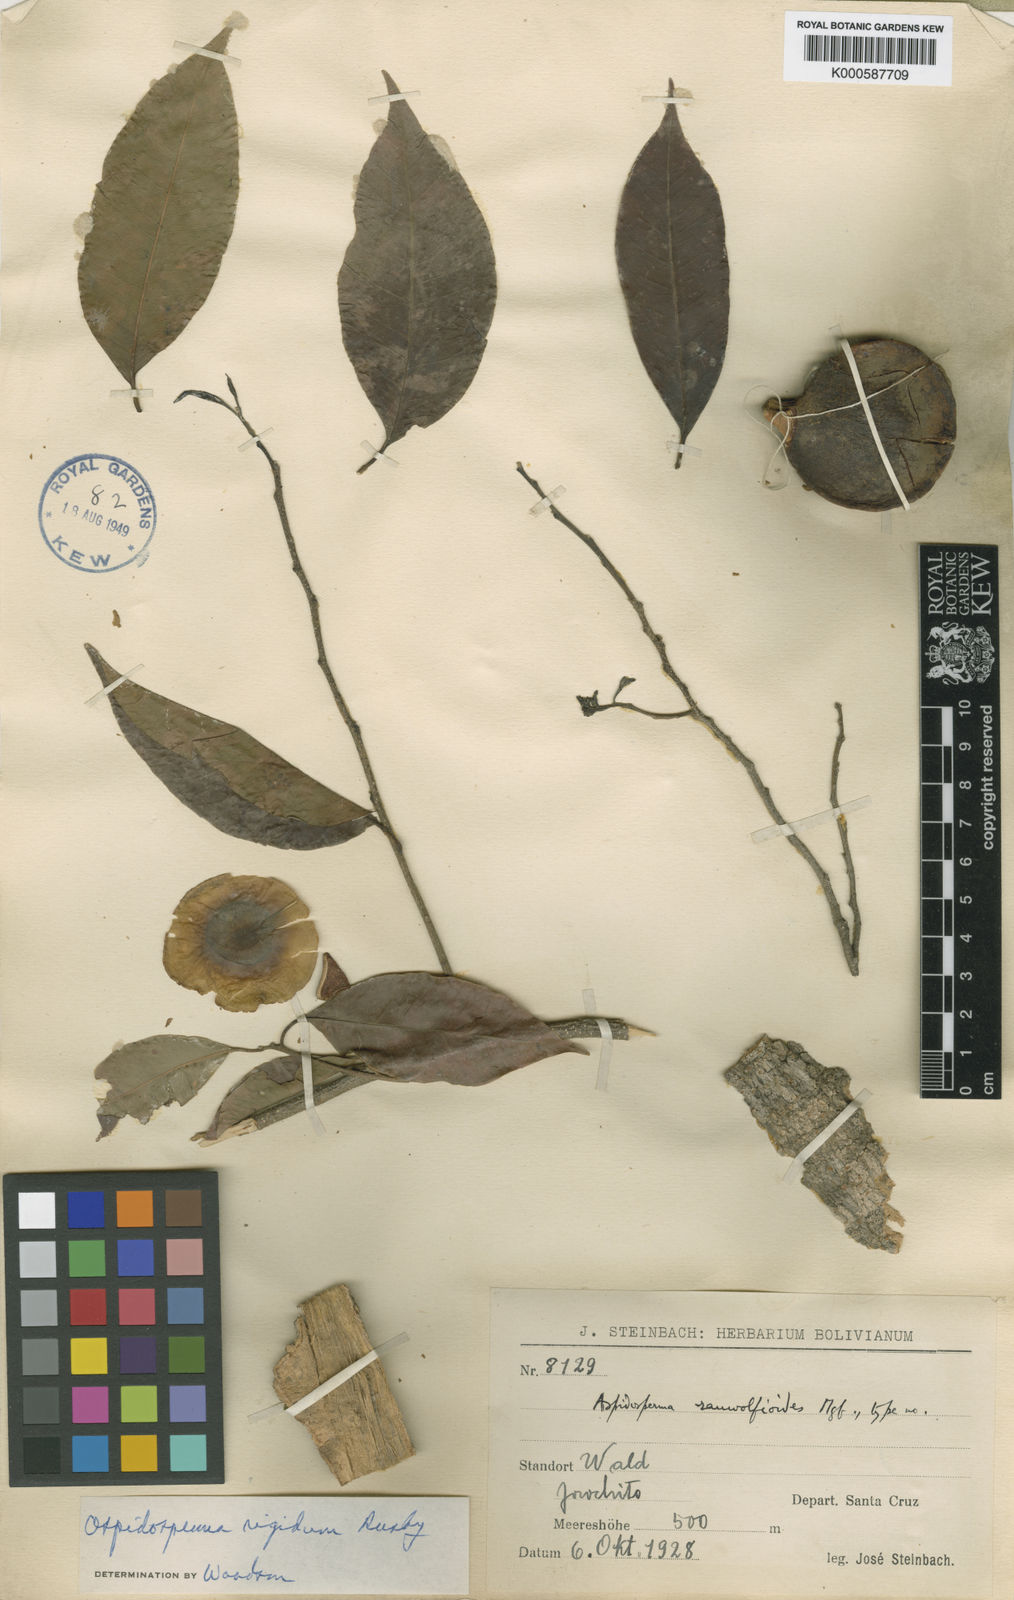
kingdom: Plantae
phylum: Tracheophyta
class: Magnoliopsida
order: Gentianales
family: Apocynaceae
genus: Aspidosperma
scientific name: Aspidosperma rigidum
